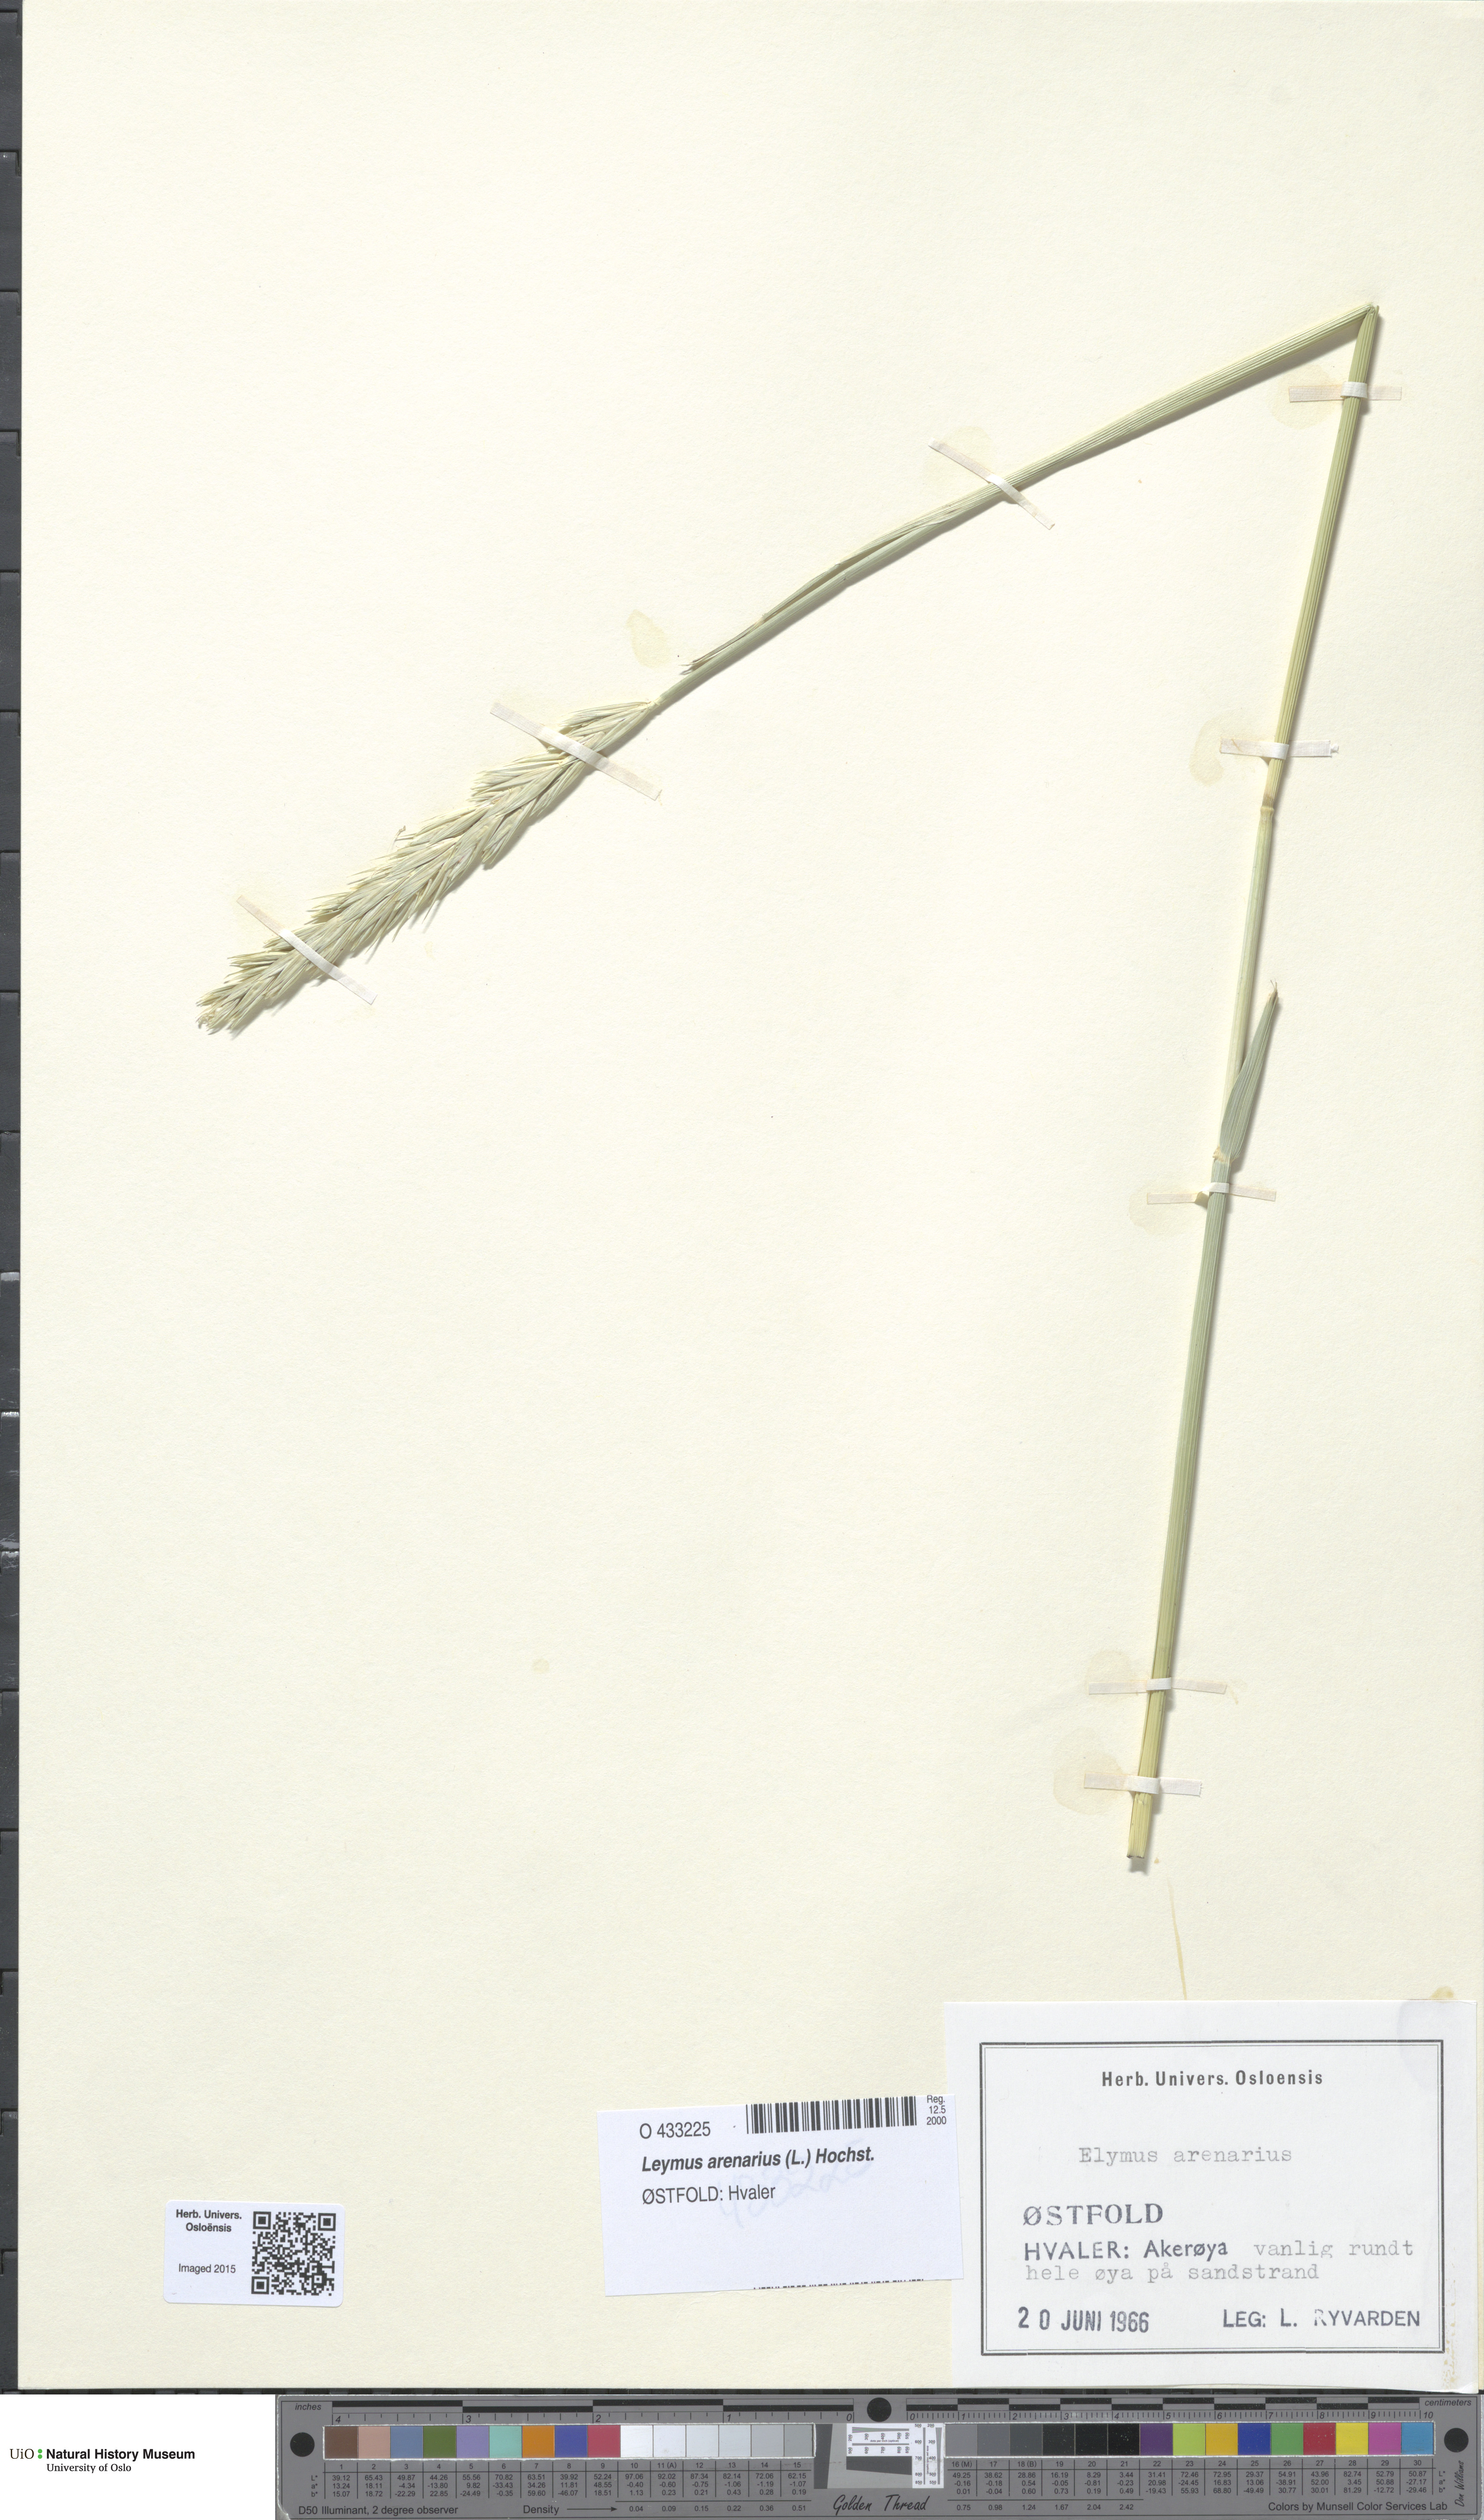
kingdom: Plantae
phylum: Tracheophyta
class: Liliopsida
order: Poales
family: Poaceae
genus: Leymus
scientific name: Leymus arenarius
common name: Lyme-grass
